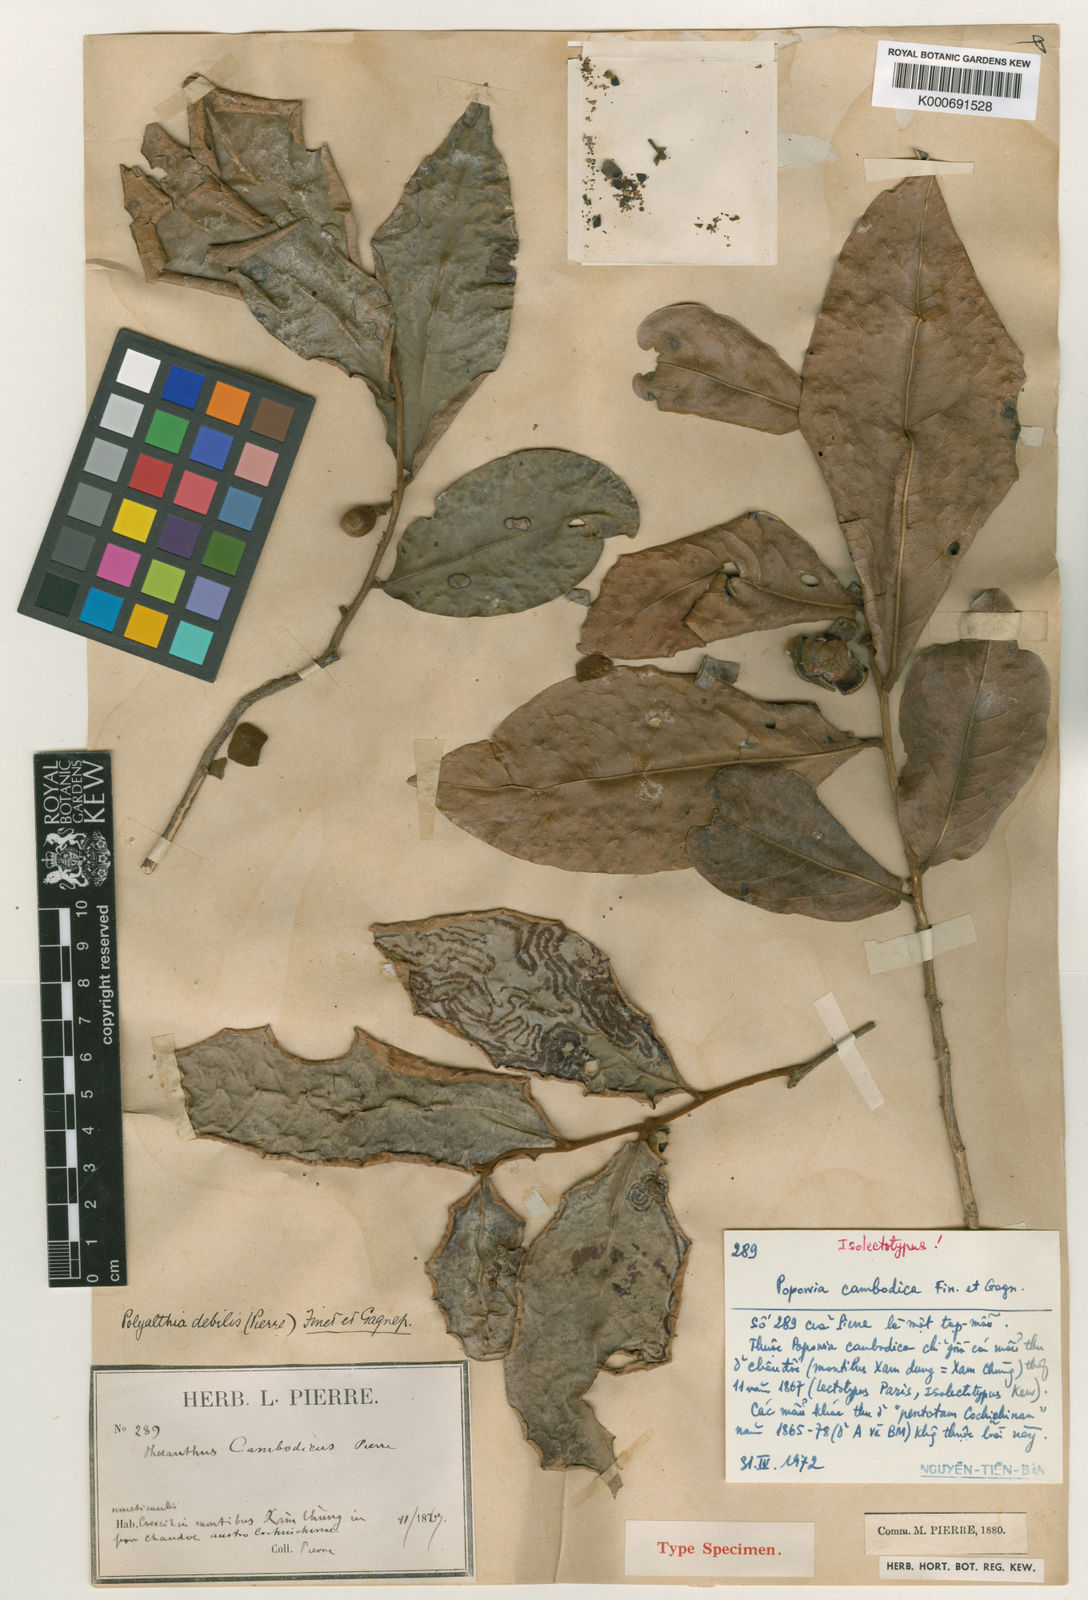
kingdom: Plantae
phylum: Tracheophyta
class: Magnoliopsida
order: Magnoliales
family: Annonaceae
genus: Polyalthia
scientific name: Polyalthia debilis
